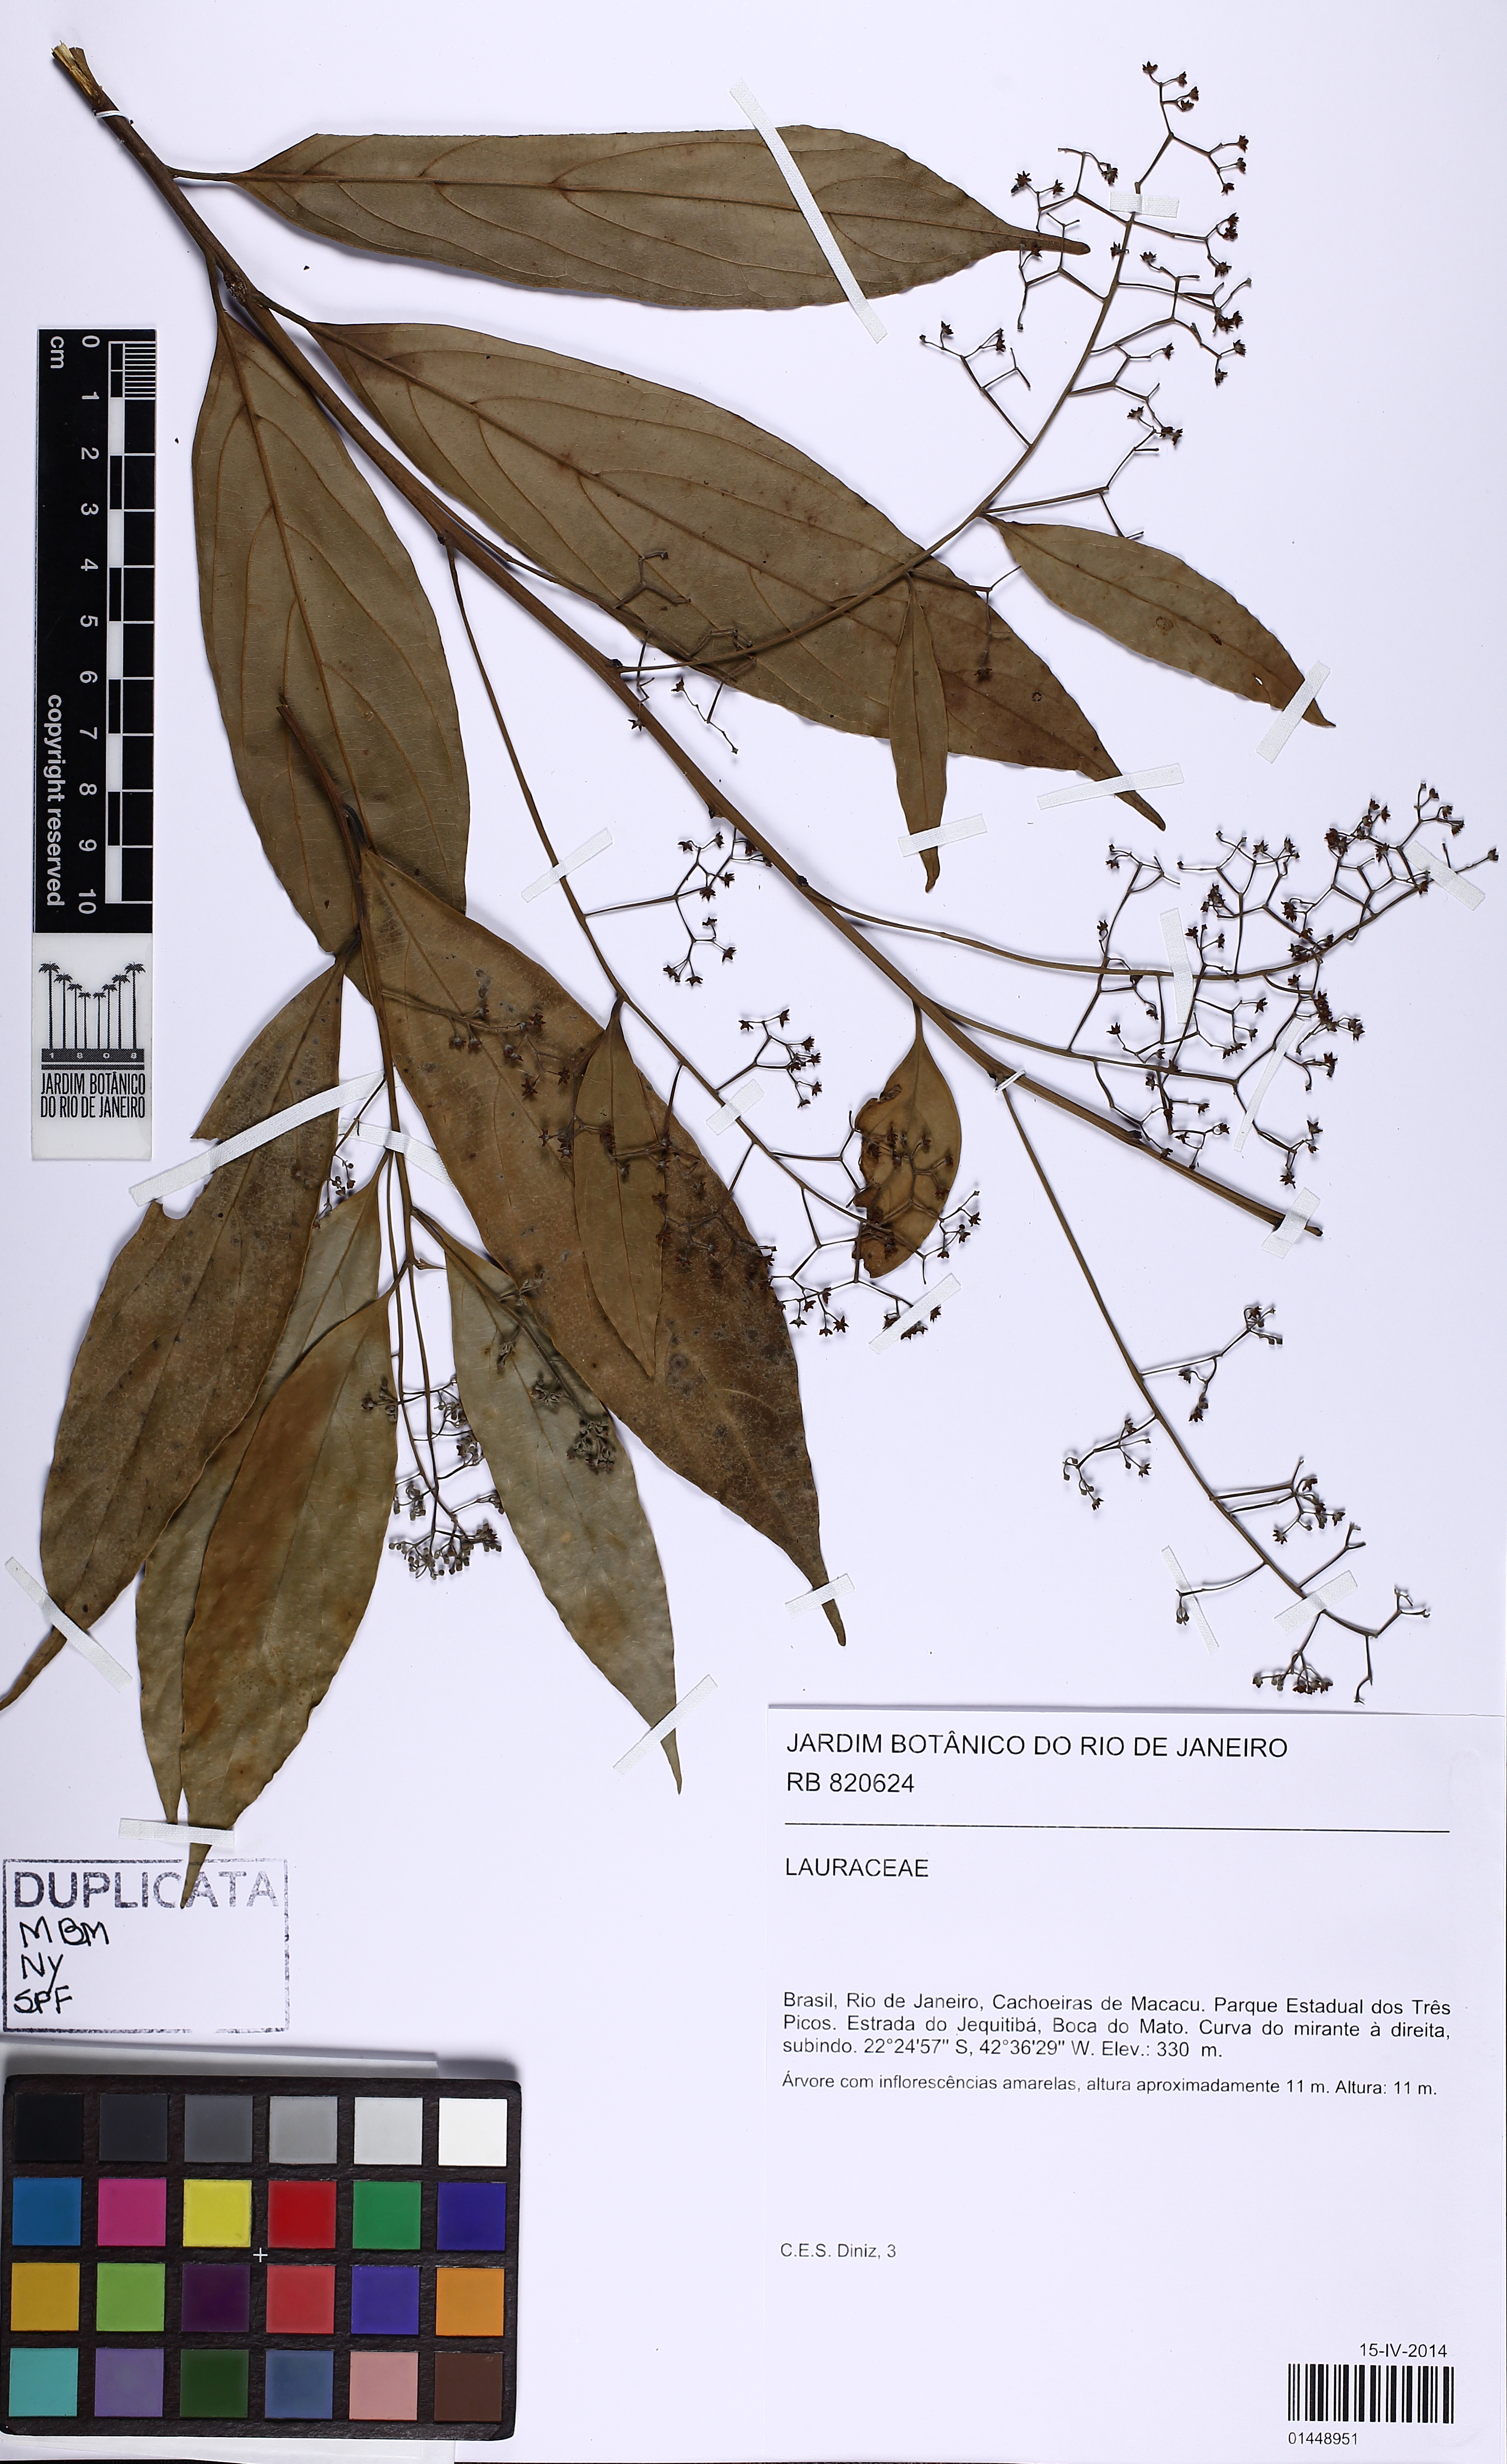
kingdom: Plantae
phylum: Tracheophyta
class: Magnoliopsida
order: Laurales
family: Lauraceae
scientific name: Lauraceae
